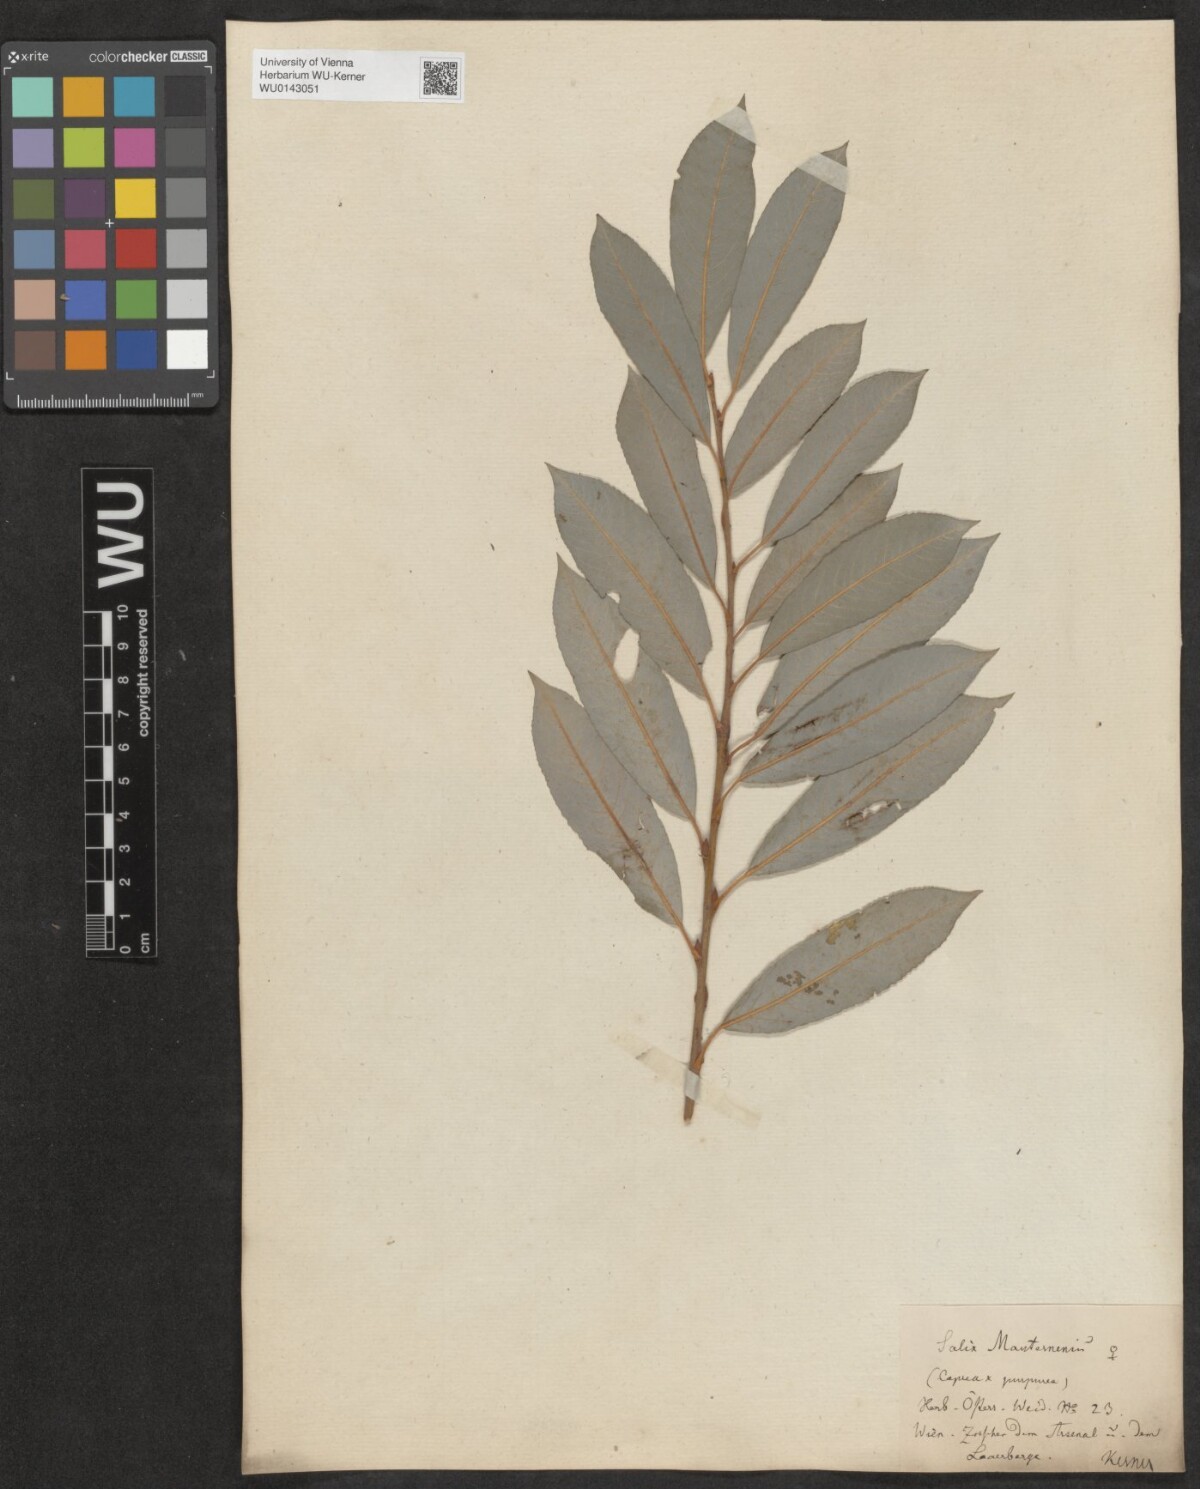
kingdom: Plantae
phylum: Tracheophyta
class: Magnoliopsida
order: Malpighiales
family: Salicaceae
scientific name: Salicaceae
